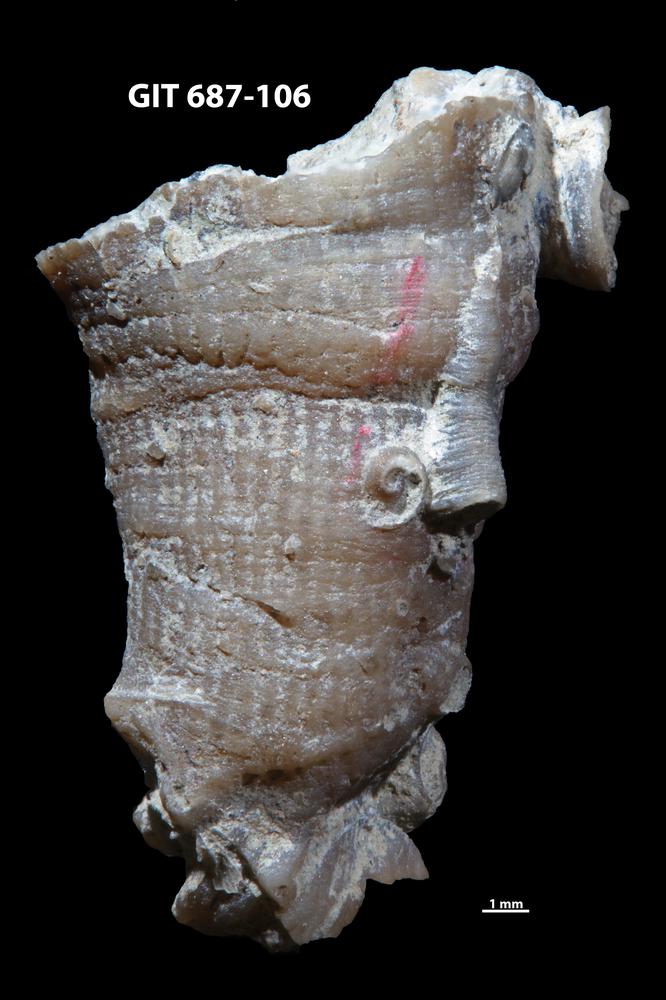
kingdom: Animalia
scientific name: Animalia
